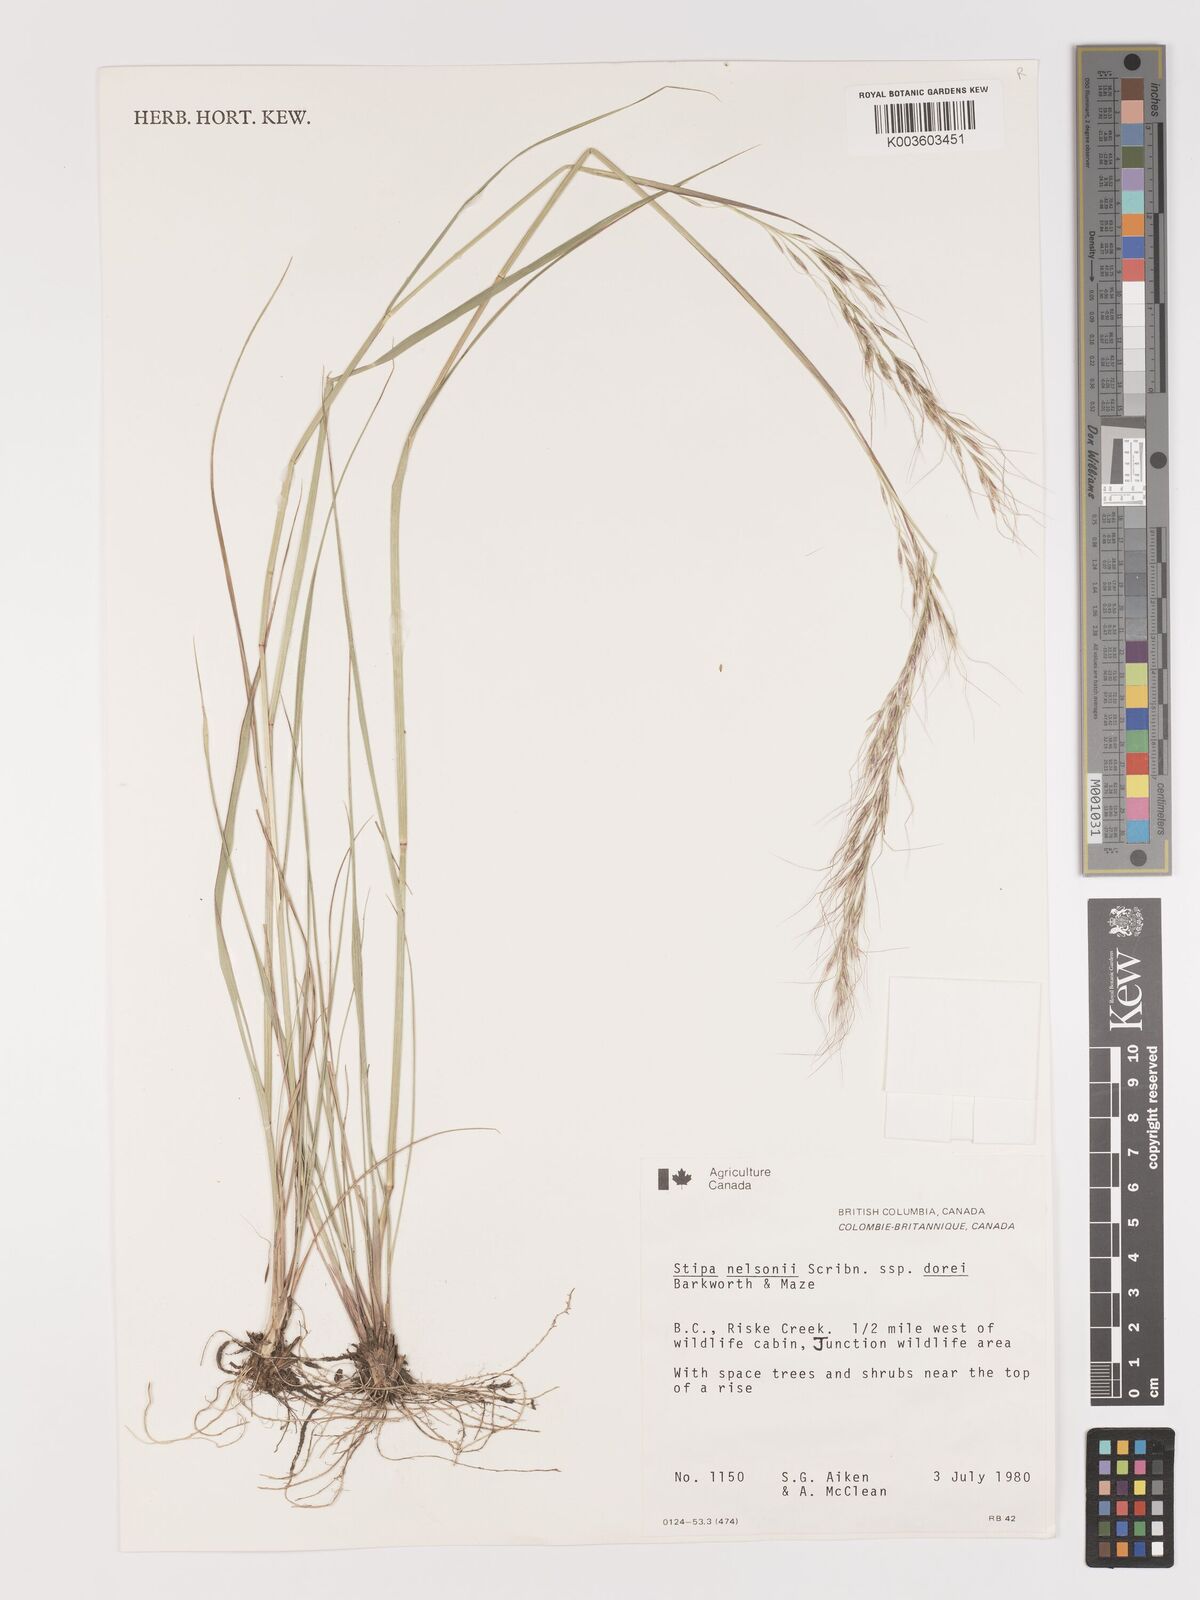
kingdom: Plantae
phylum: Tracheophyta
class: Liliopsida
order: Poales
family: Poaceae
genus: Eriocoma
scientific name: Eriocoma nelsonii
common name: Nelson's needlegrass
